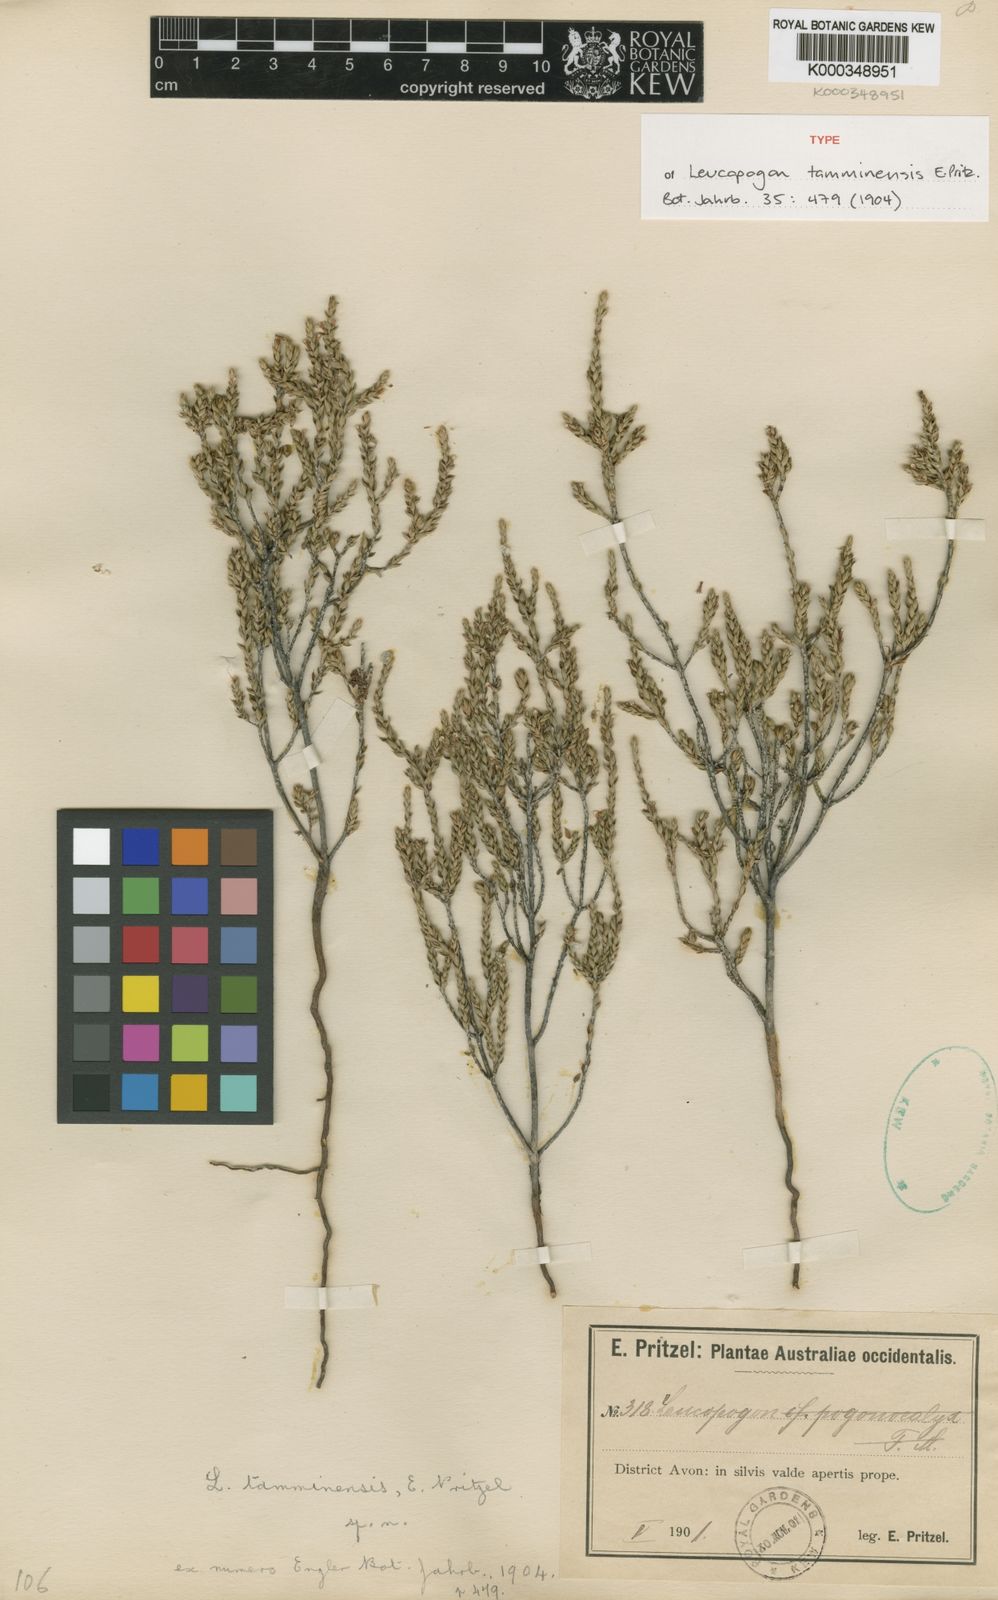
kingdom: Plantae
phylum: Tracheophyta
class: Magnoliopsida
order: Ericales
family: Ericaceae
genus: Styphelia
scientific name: Styphelia tamminensis
